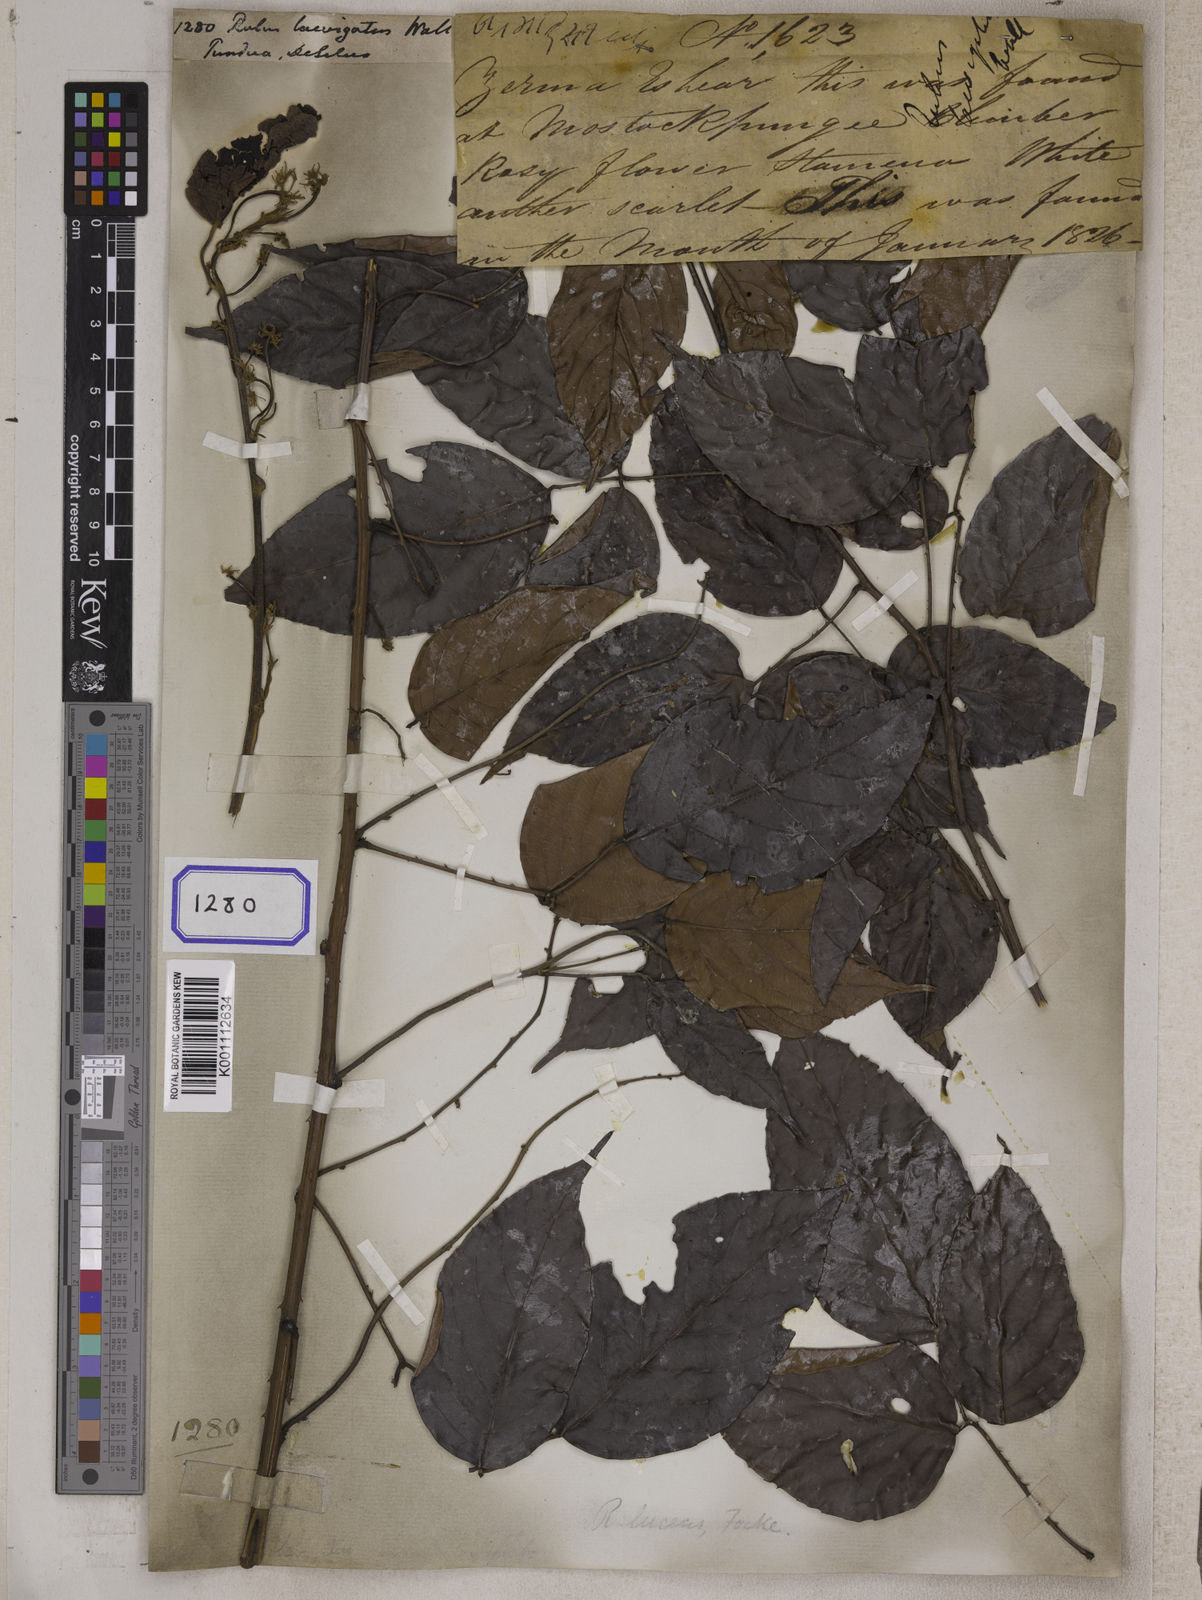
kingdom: Plantae
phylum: Tracheophyta
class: Magnoliopsida
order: Rosales
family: Rosaceae
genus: Rubus
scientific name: Rubus lucens
